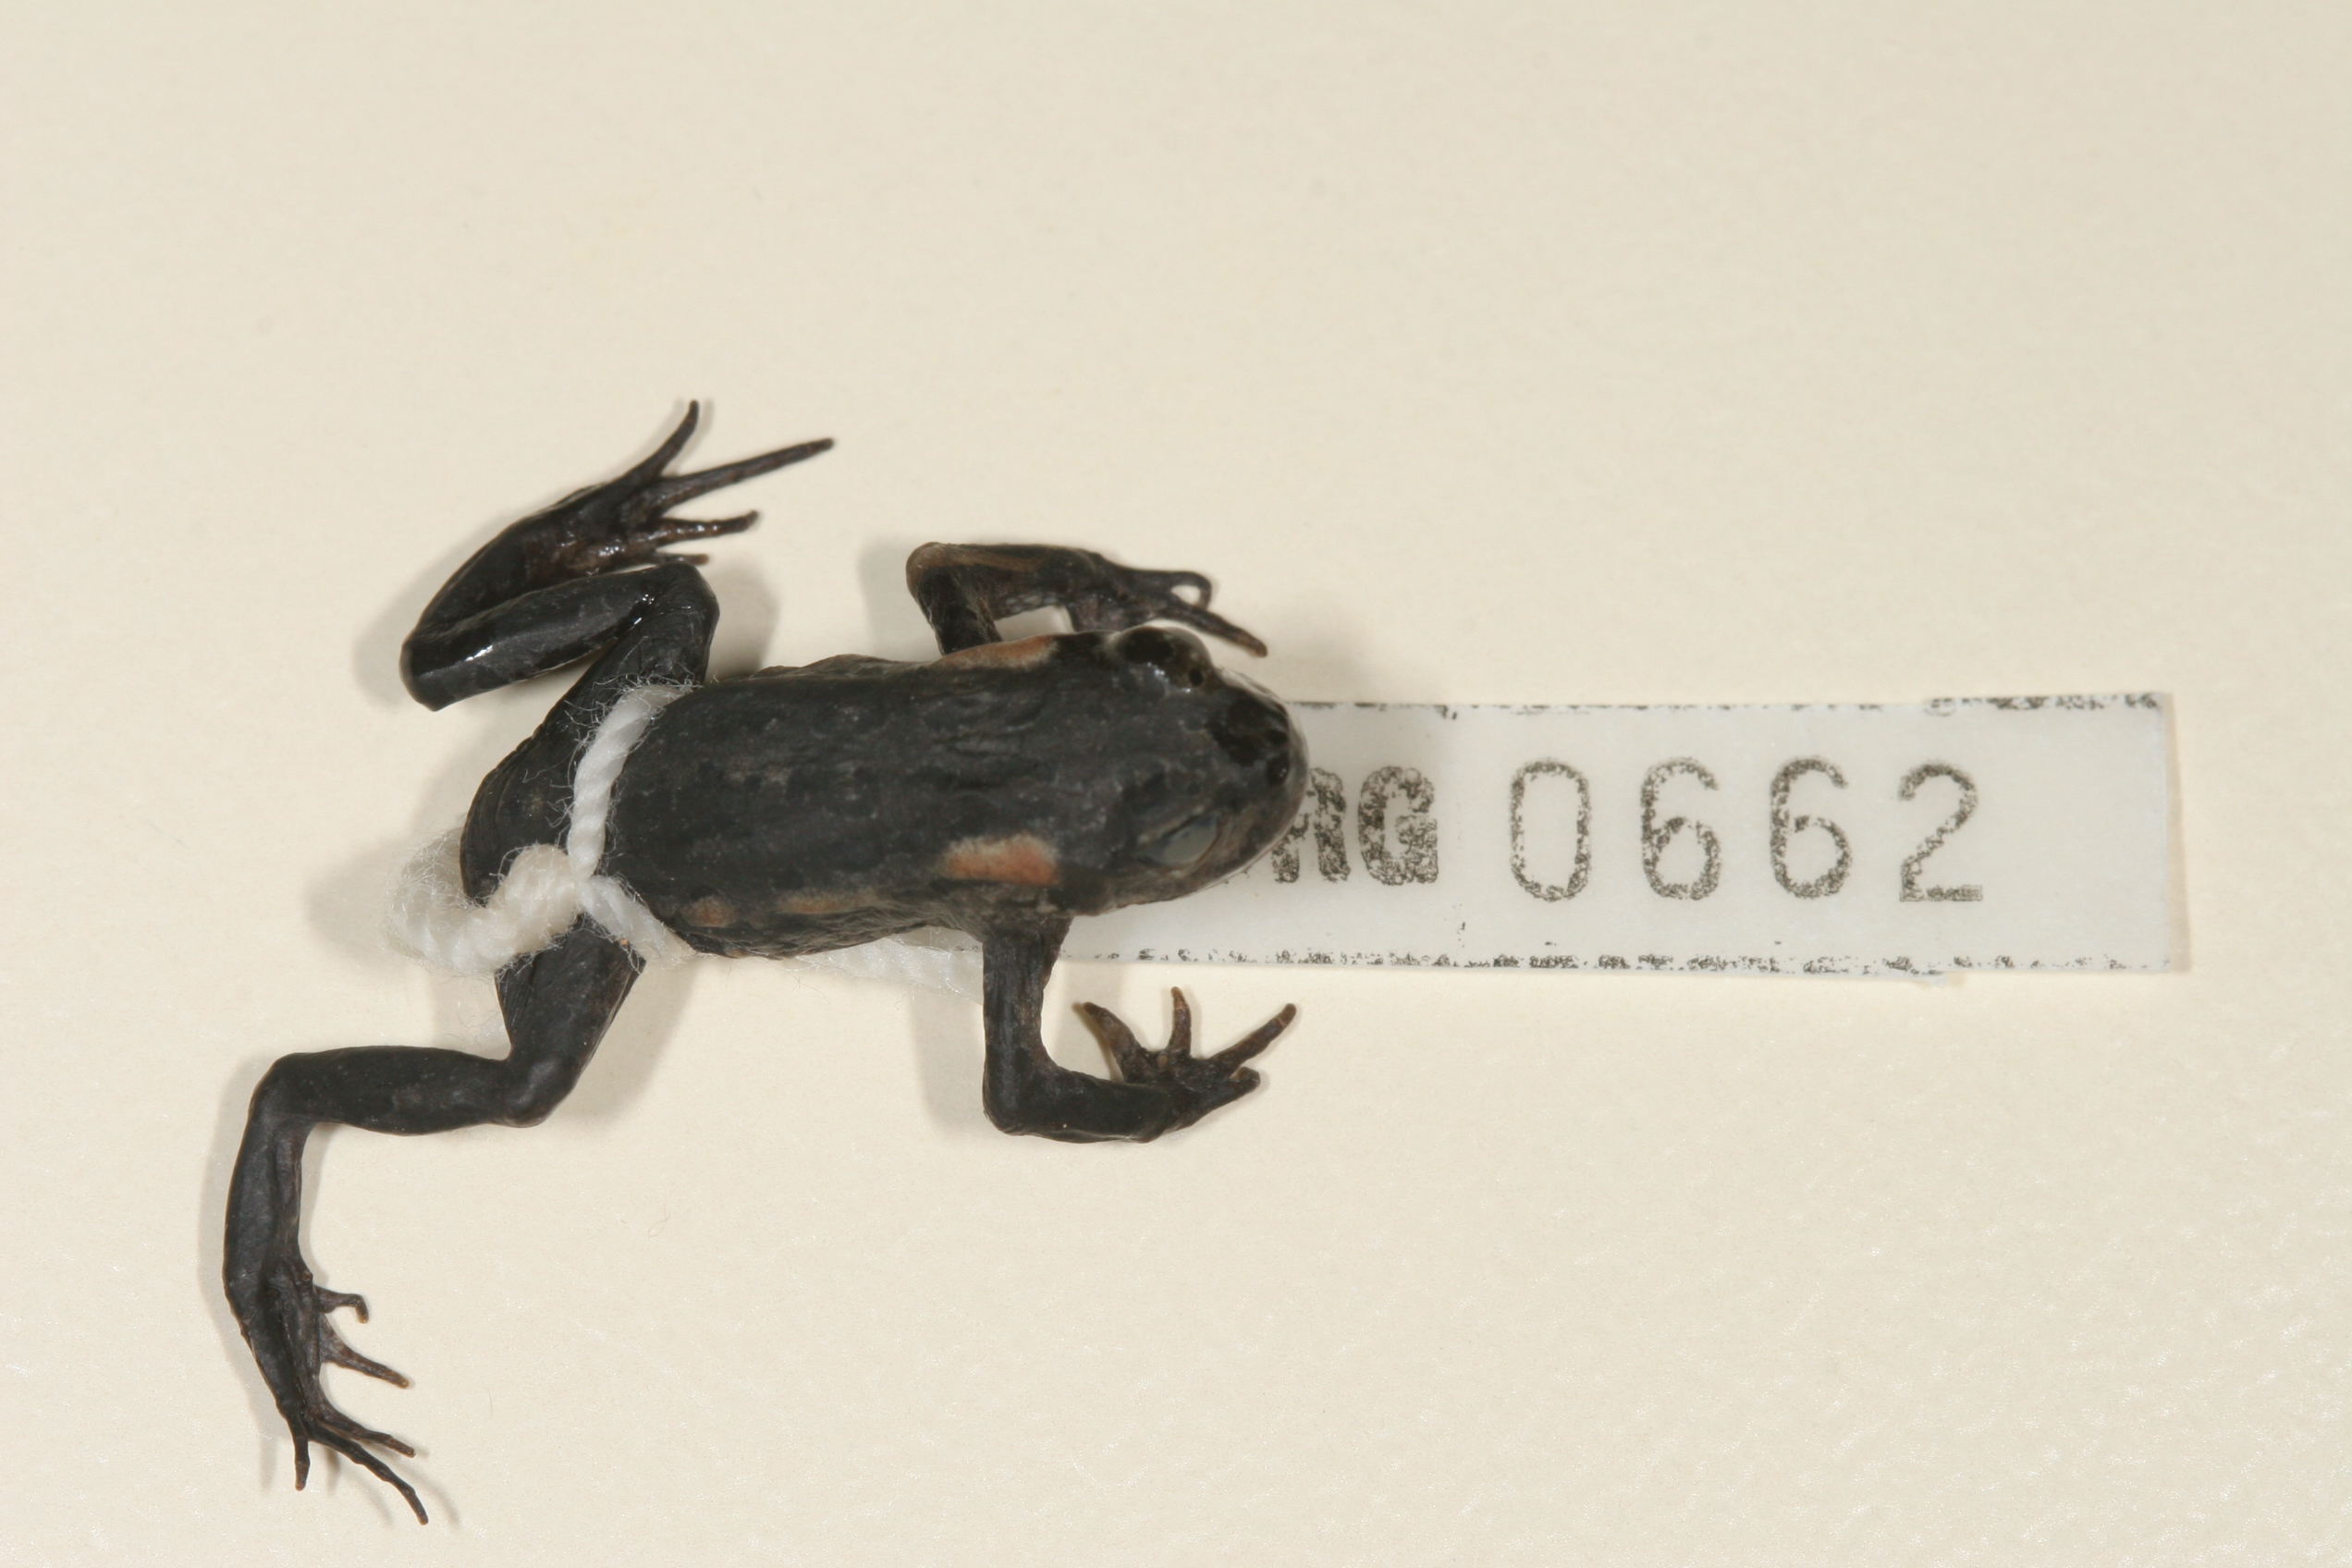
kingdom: Animalia
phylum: Chordata
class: Amphibia
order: Anura
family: Bufonidae
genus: Capensibufo
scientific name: Capensibufo rosei
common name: Cape mountain toad
